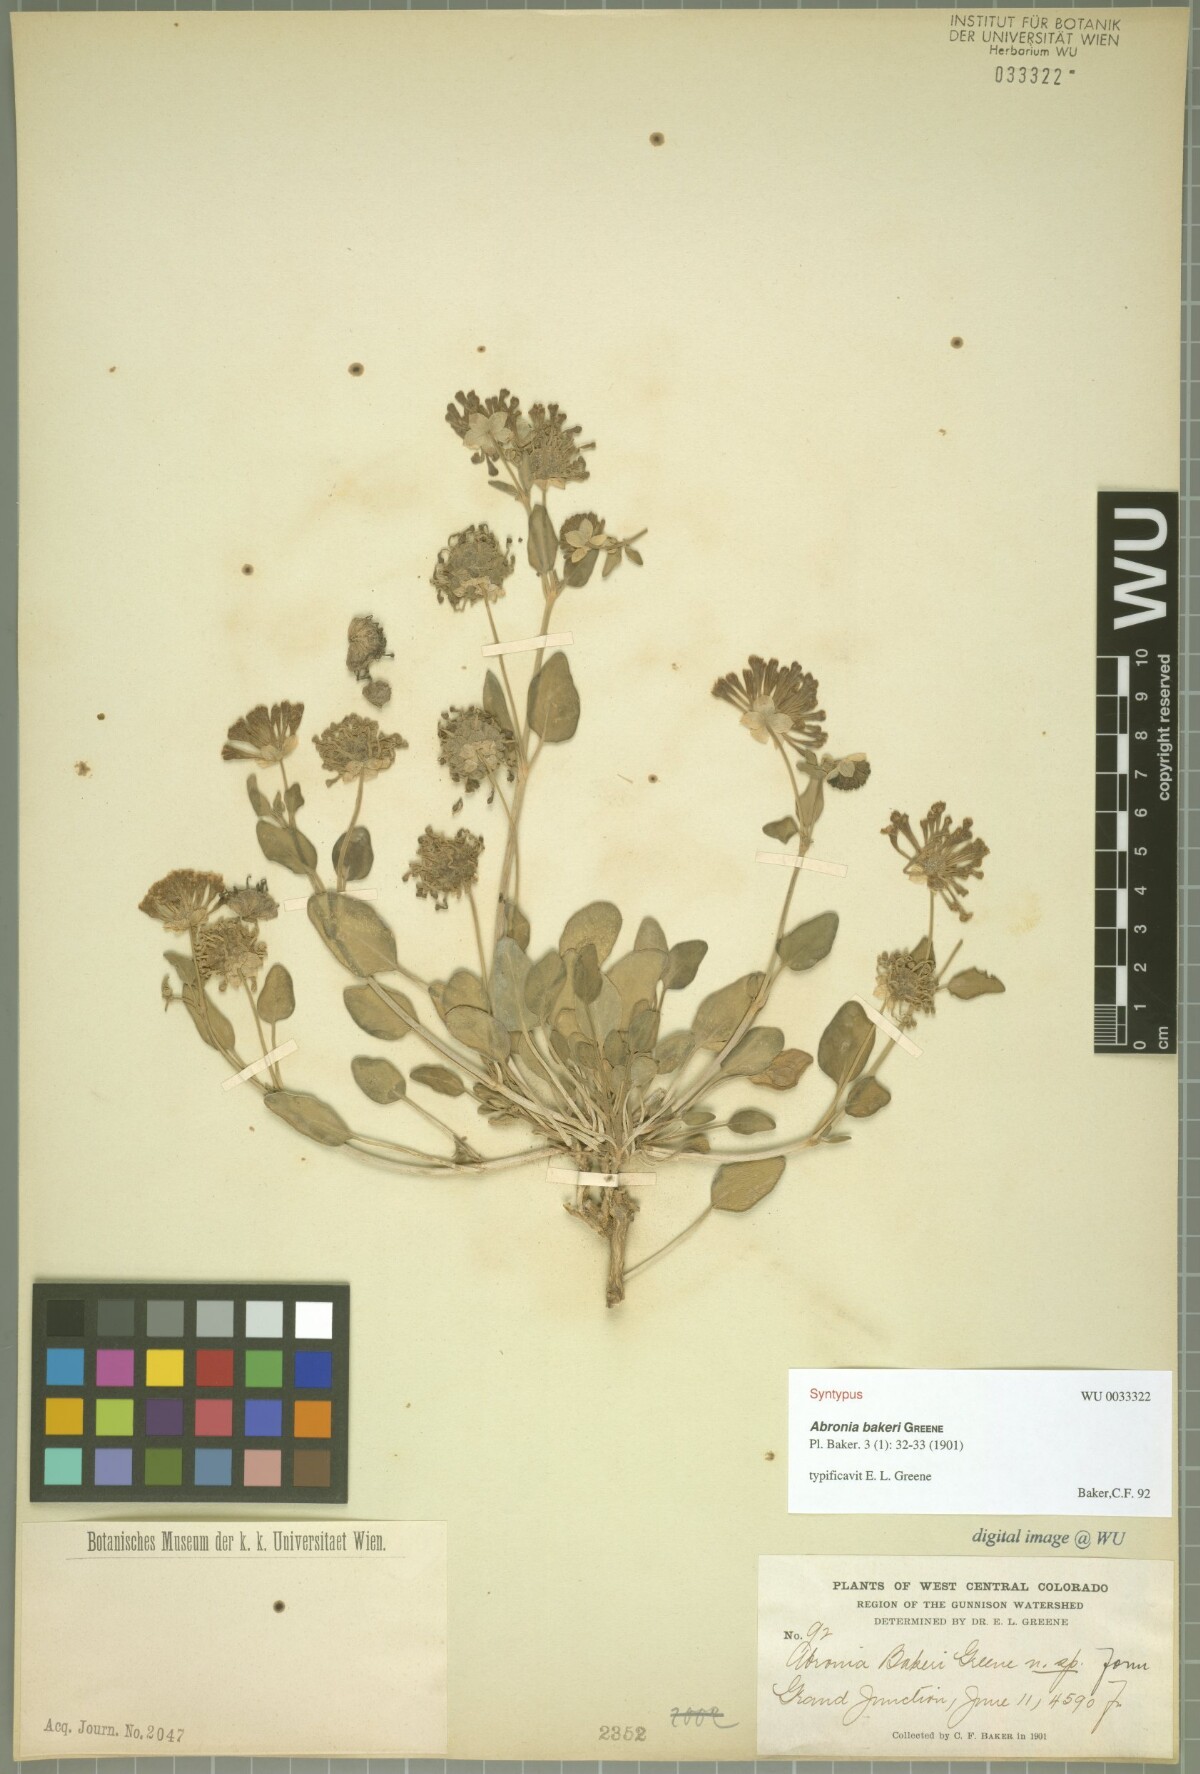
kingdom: Plantae
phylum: Tracheophyta
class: Magnoliopsida
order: Caryophyllales
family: Nyctaginaceae
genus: Abronia
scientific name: Abronia elliptica
